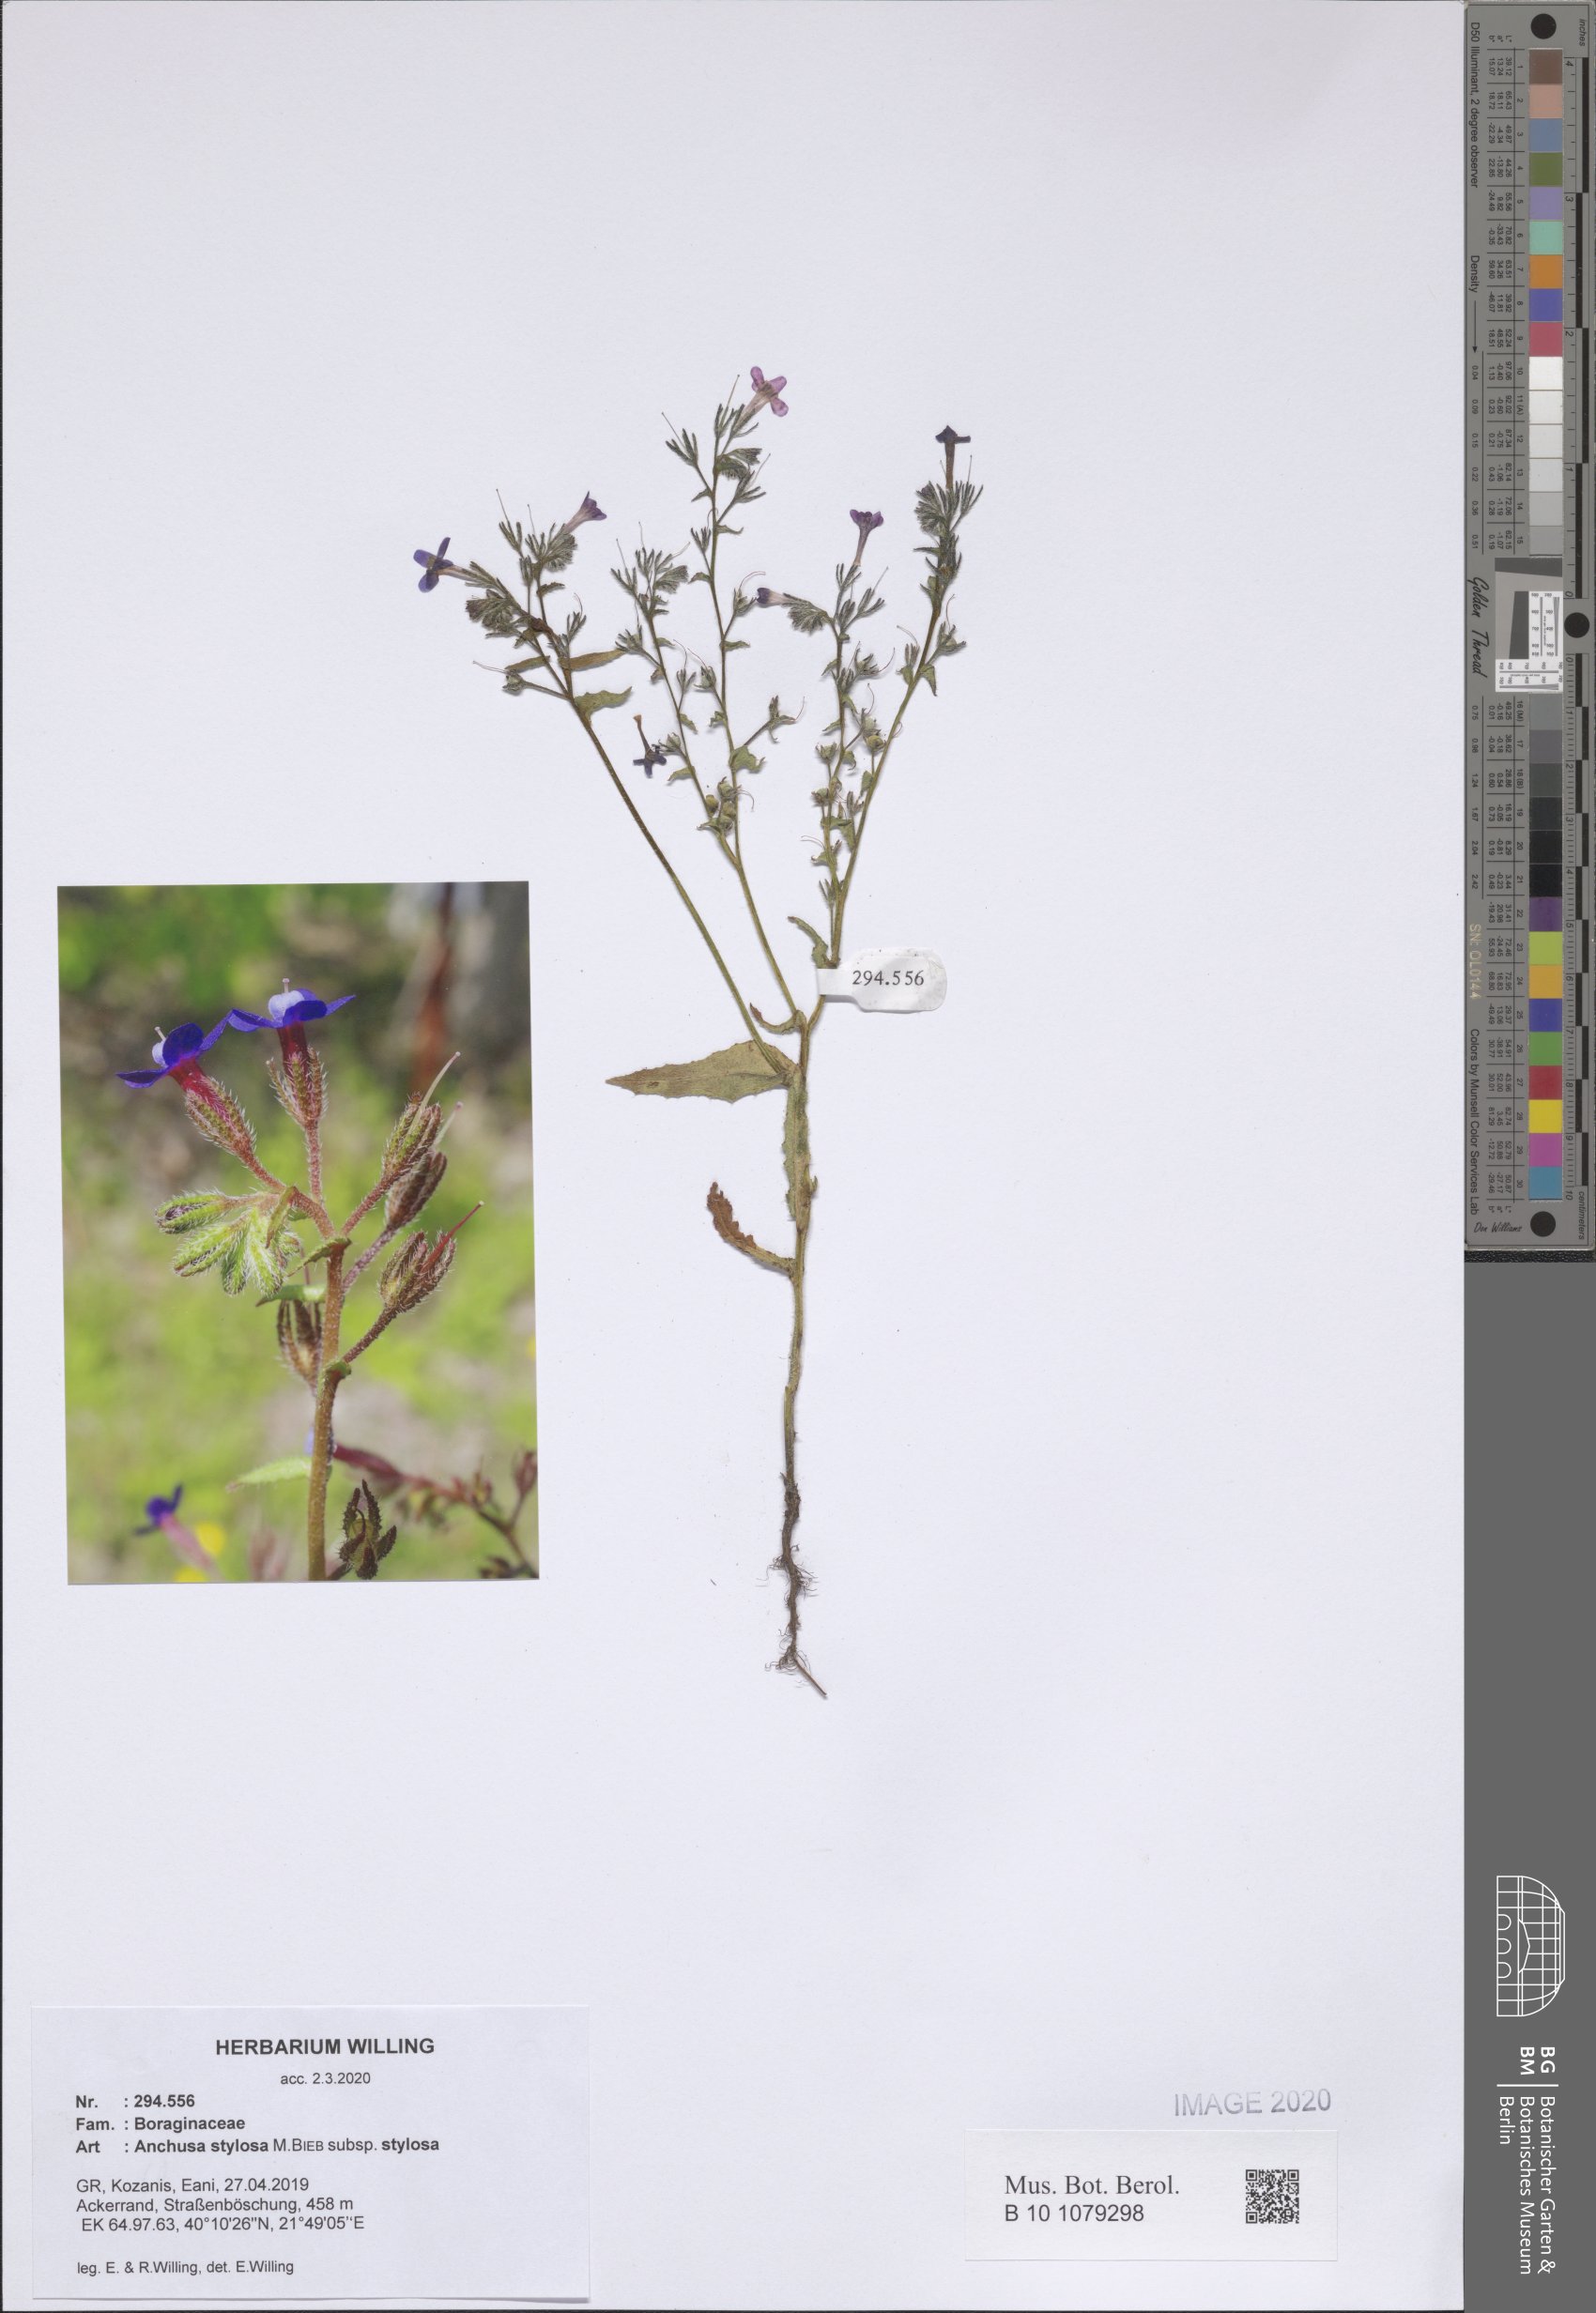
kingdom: Plantae
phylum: Tracheophyta
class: Magnoliopsida
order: Boraginales
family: Boraginaceae
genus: Anchusa
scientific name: Anchusa stylosa
